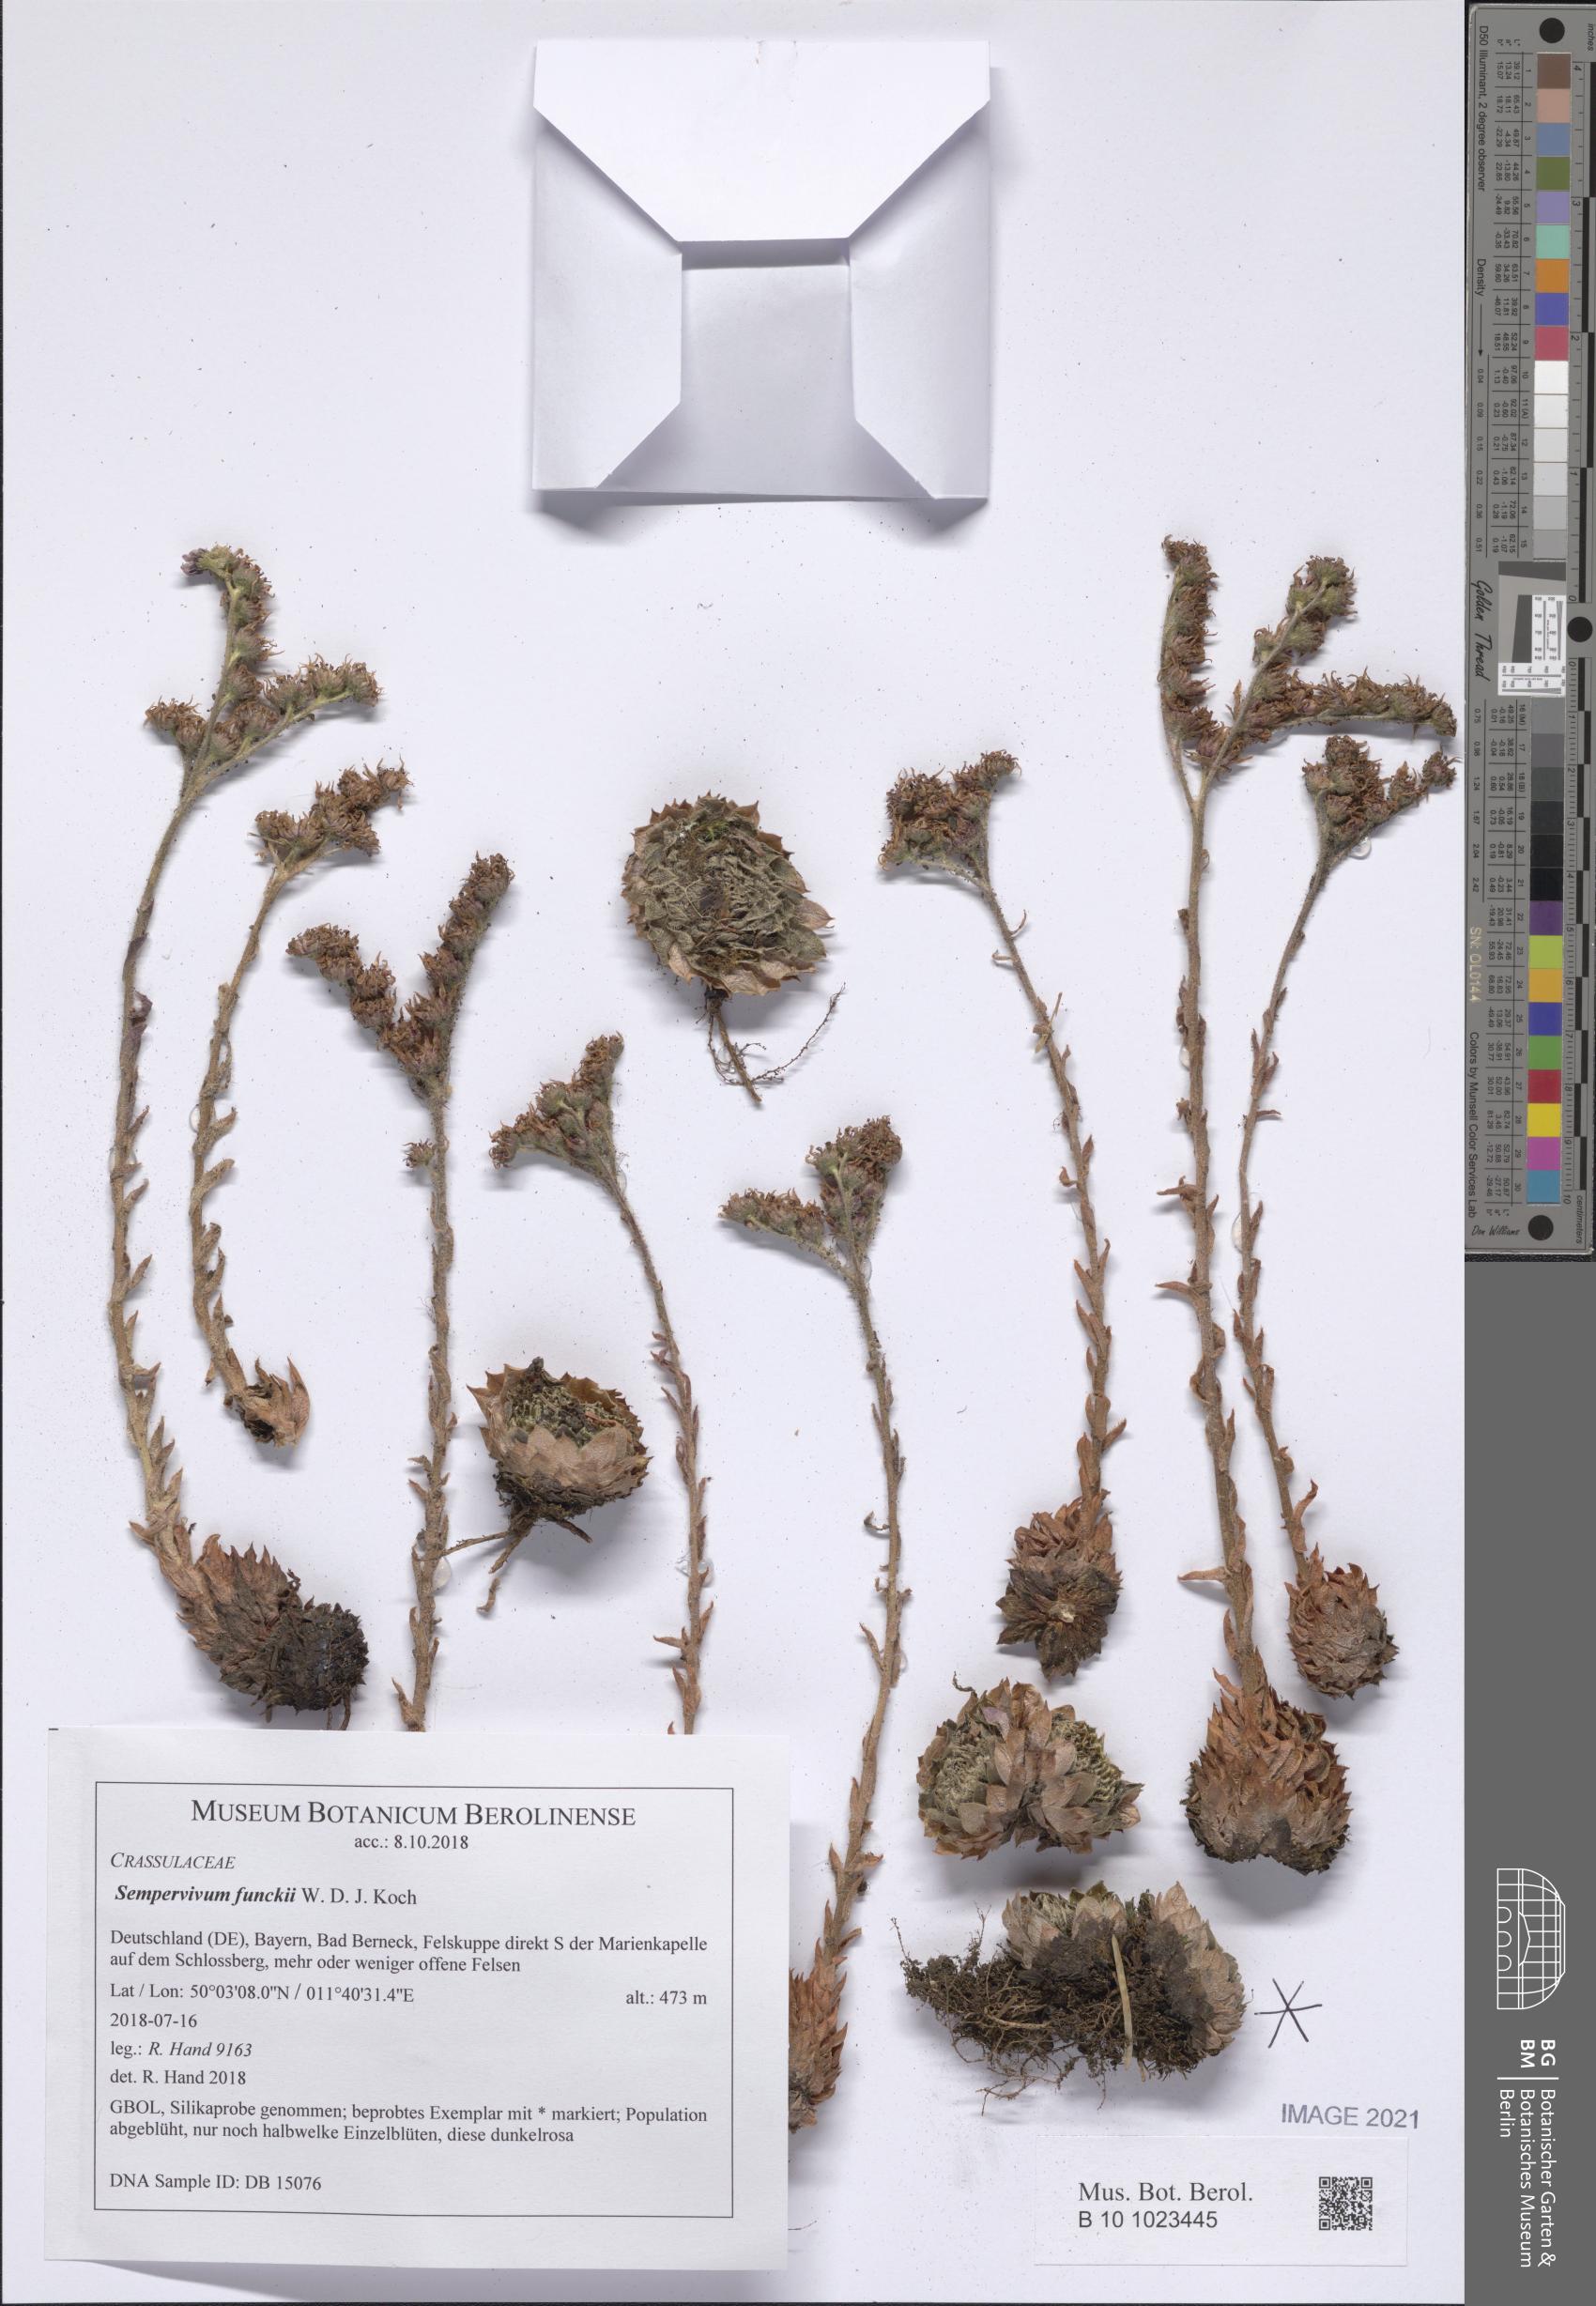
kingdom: Plantae
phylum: Tracheophyta
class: Magnoliopsida
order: Saxifragales
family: Crassulaceae
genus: Sempervivum
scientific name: Sempervivum funckii
